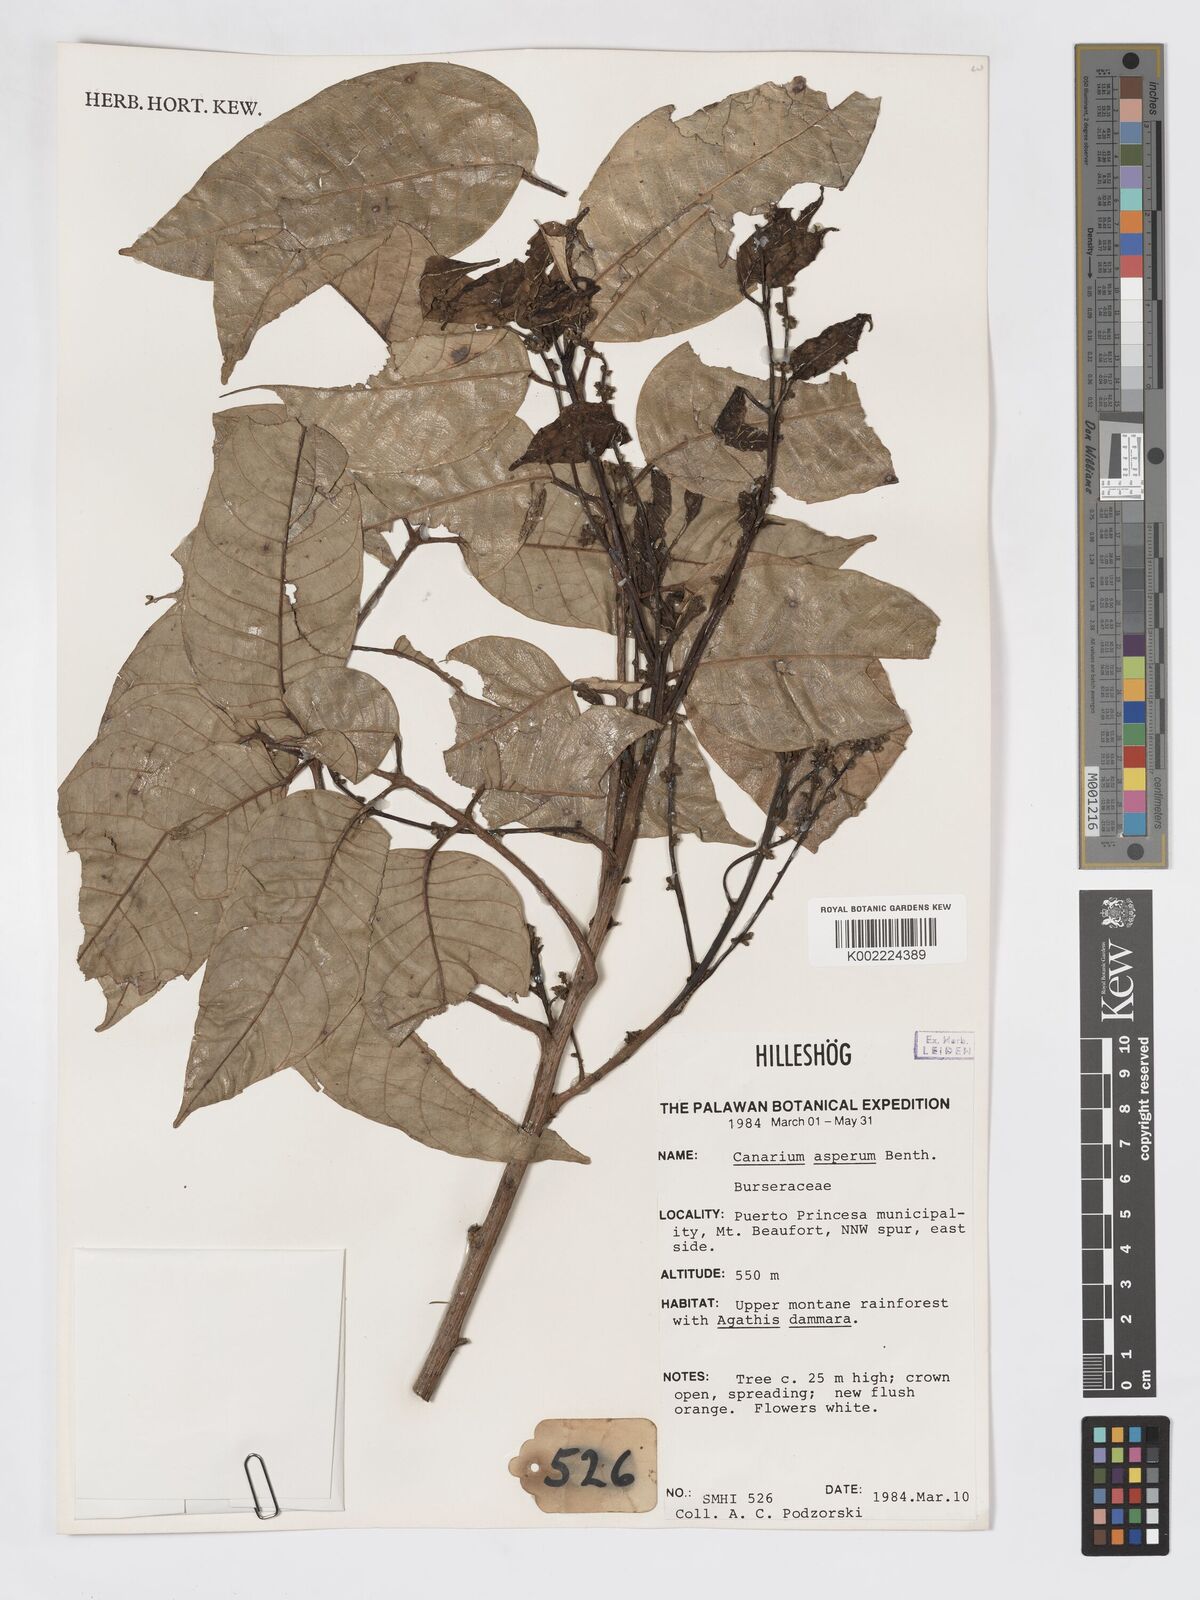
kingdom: Plantae
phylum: Tracheophyta
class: Magnoliopsida
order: Sapindales
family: Burseraceae
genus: Canarium
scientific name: Canarium asperum
